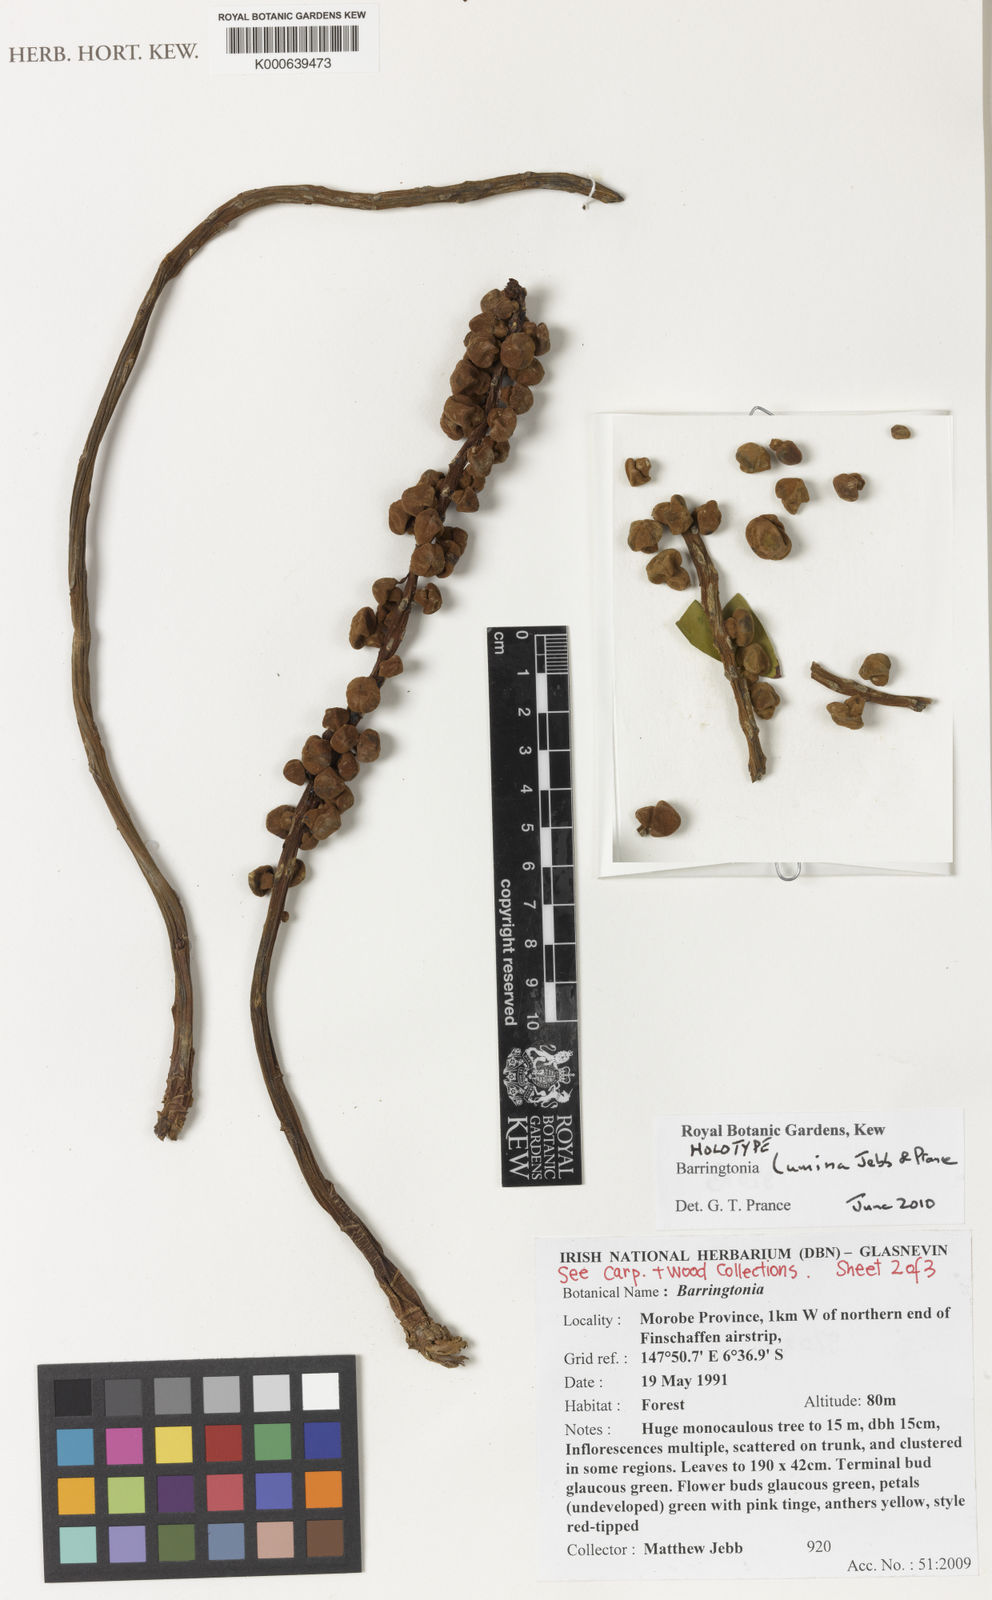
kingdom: Plantae
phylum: Tracheophyta
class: Magnoliopsida
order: Ericales
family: Lecythidaceae
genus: Barringtonia
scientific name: Barringtonia lumina
